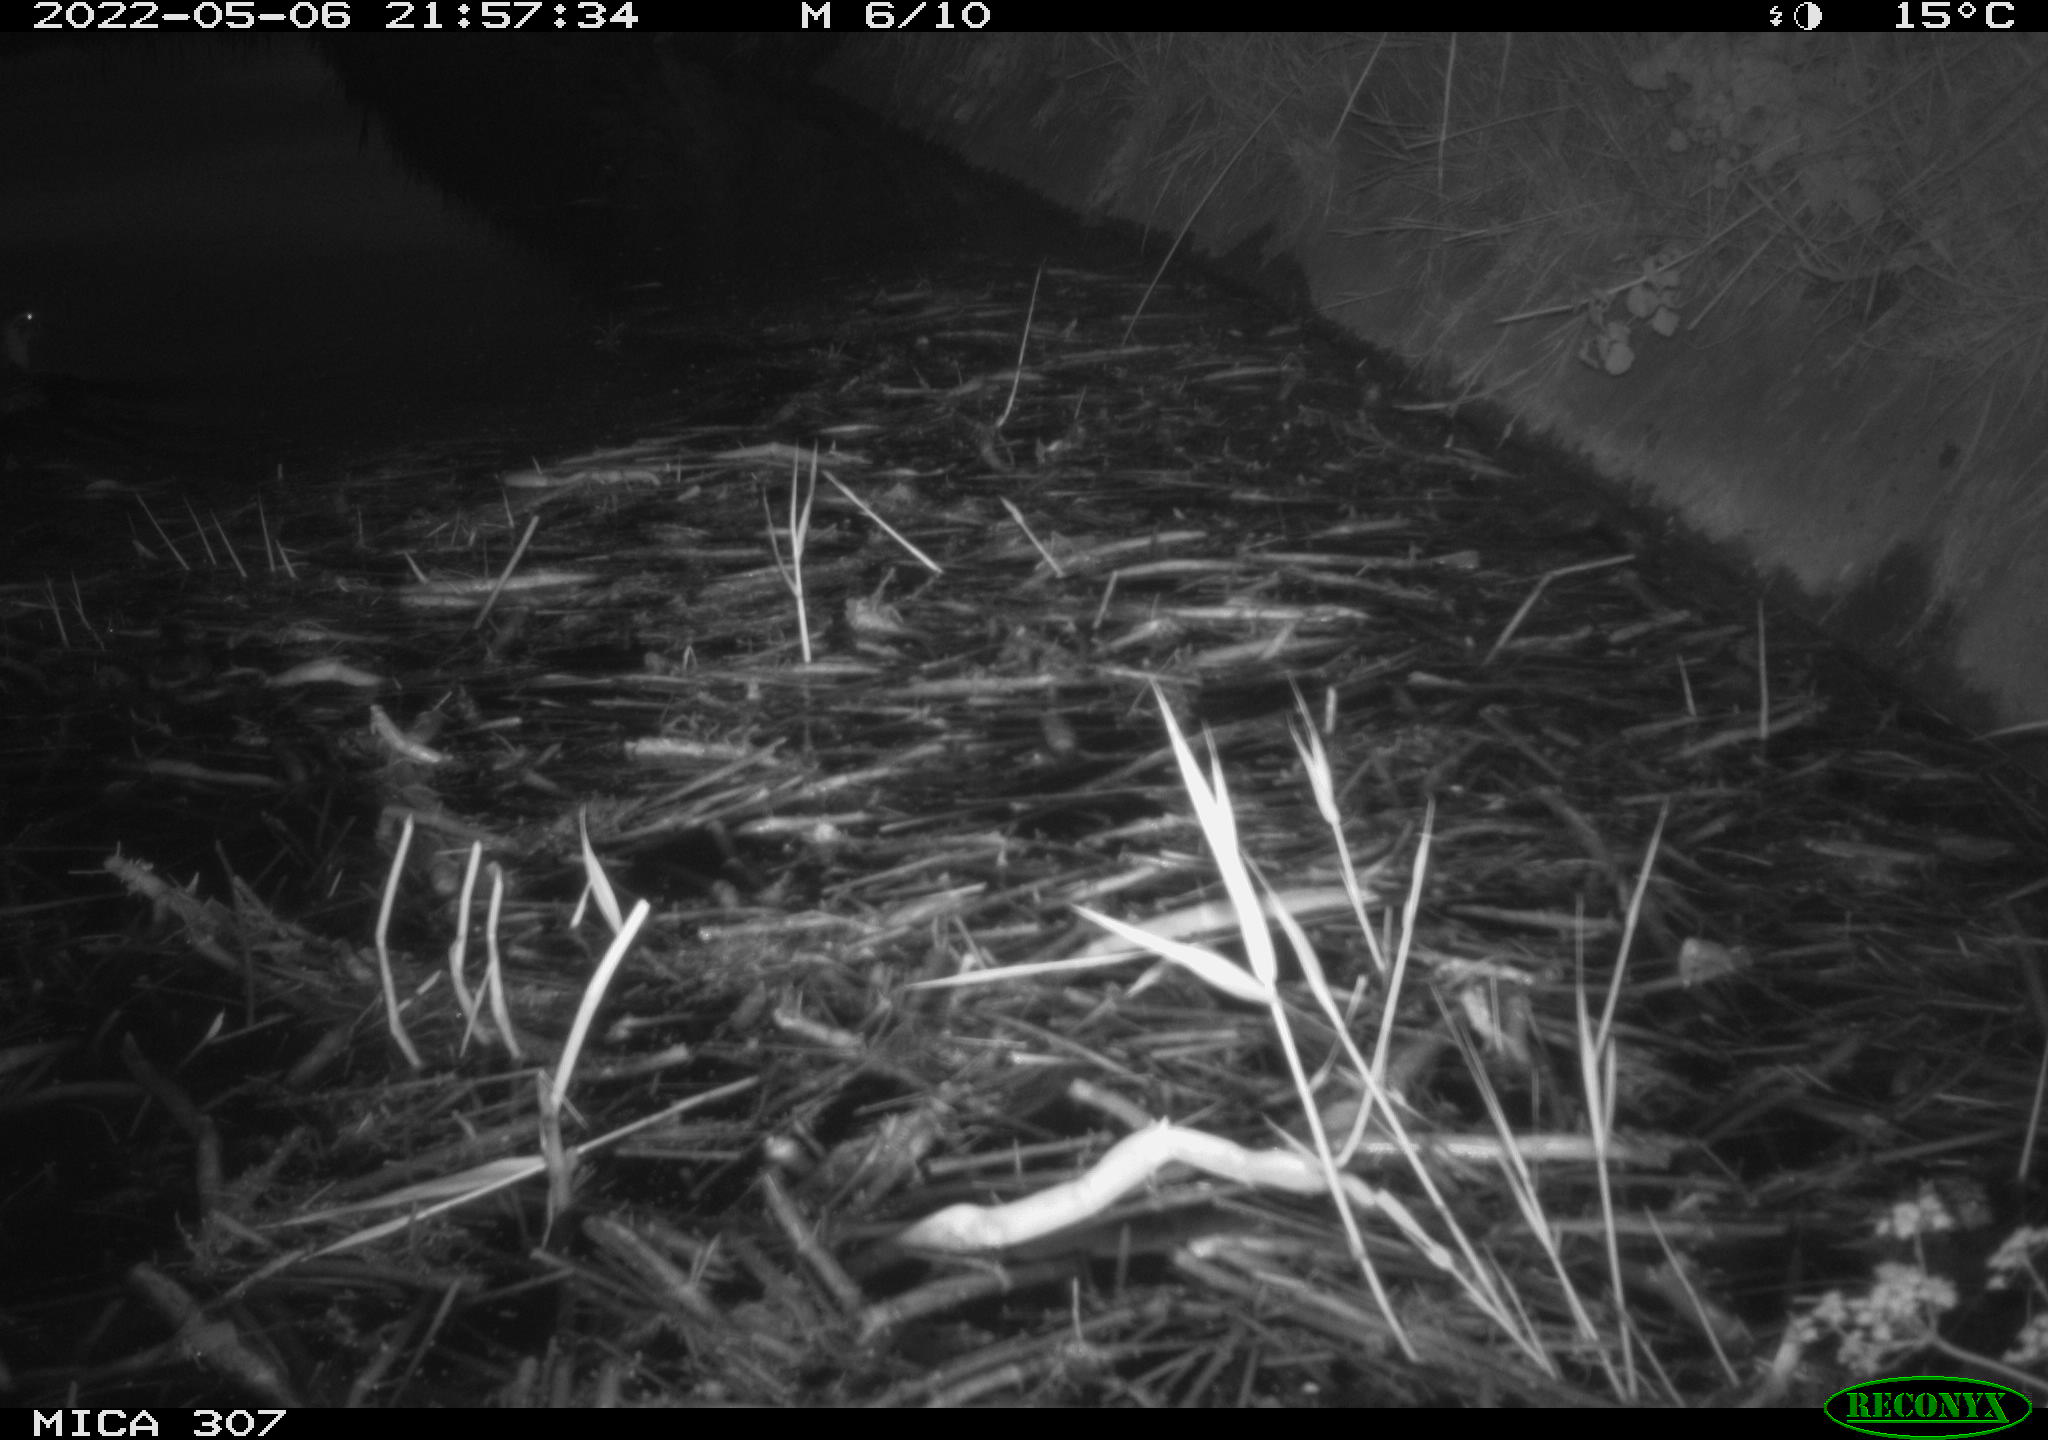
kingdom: Animalia
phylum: Chordata
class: Aves
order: Anseriformes
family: Anatidae
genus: Anas
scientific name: Anas platyrhynchos
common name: Mallard
